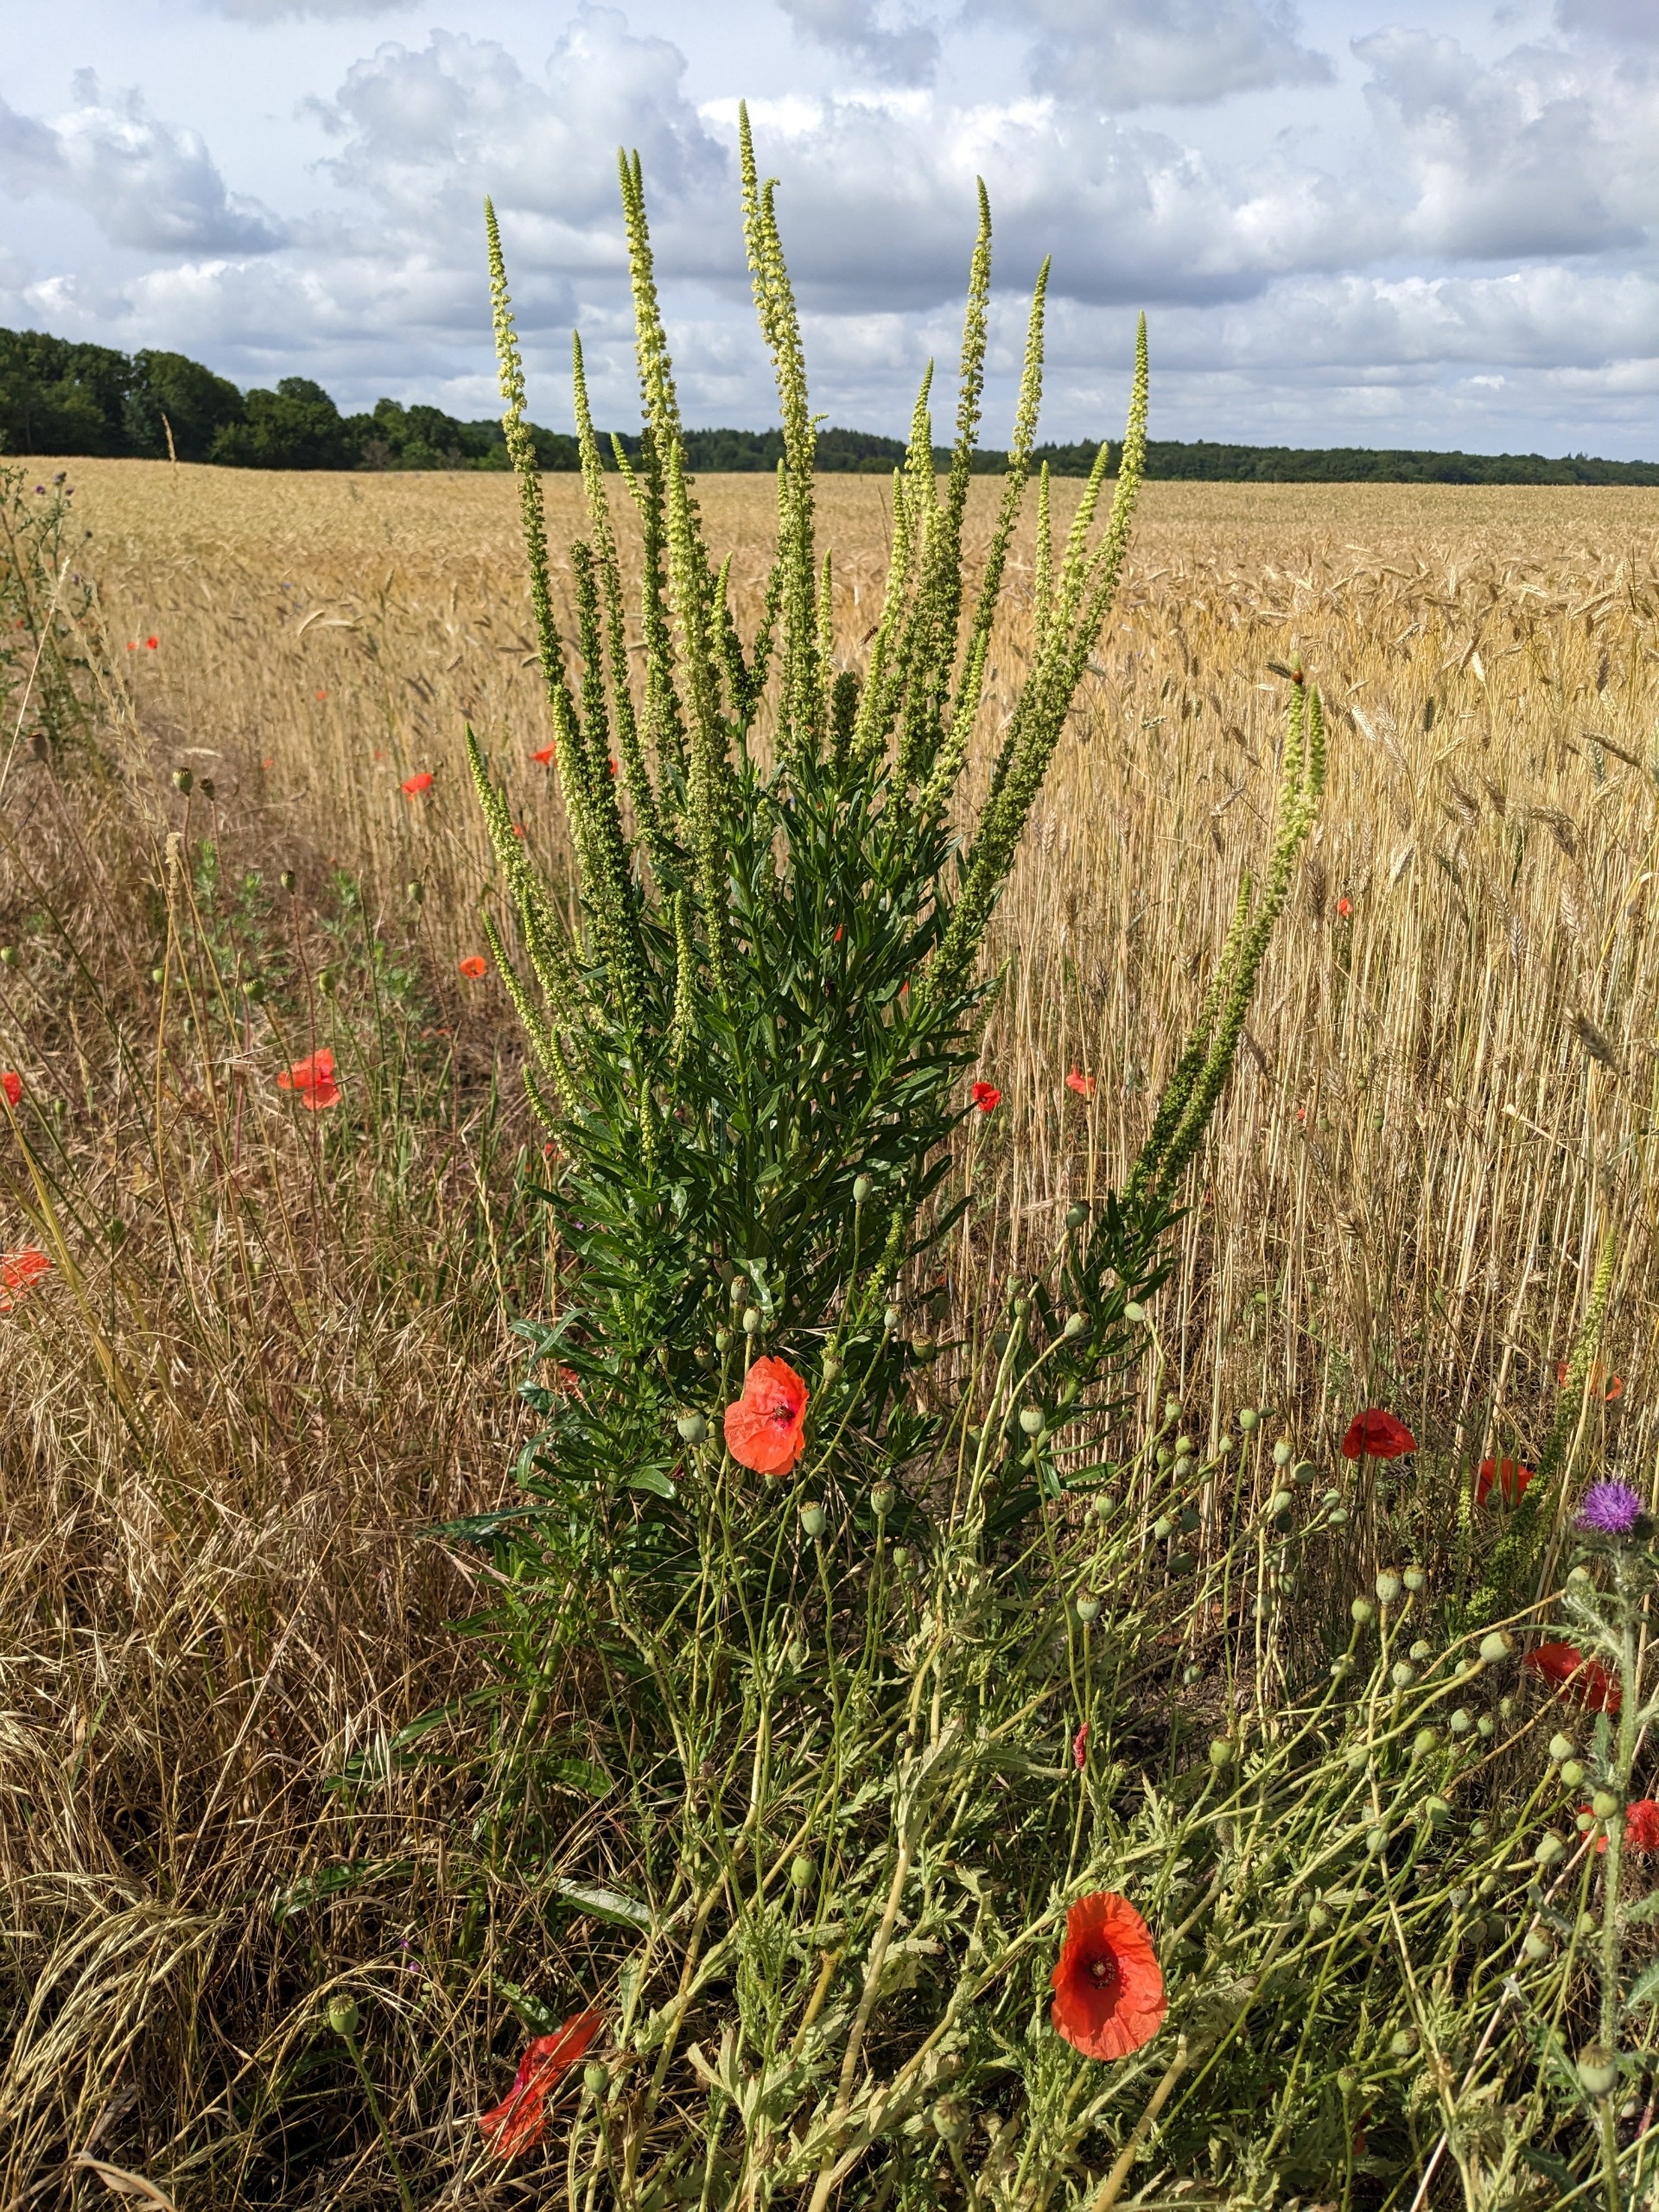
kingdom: Plantae
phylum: Tracheophyta
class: Magnoliopsida
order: Brassicales
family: Resedaceae
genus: Reseda
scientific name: Reseda luteola
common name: Farve-reseda
